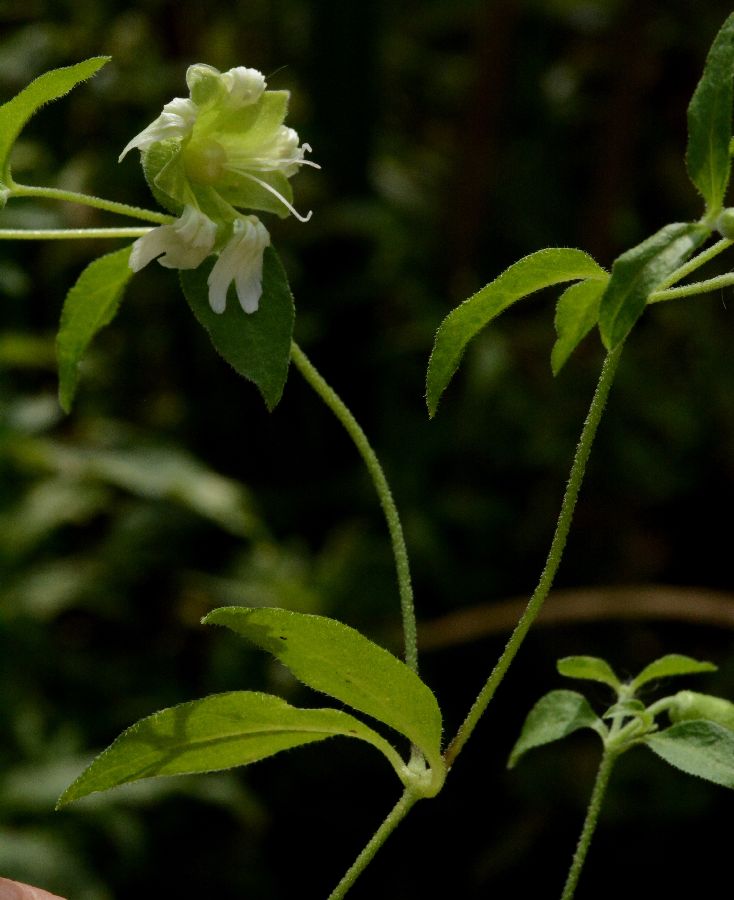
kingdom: Plantae
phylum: Tracheophyta
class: Magnoliopsida
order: Caryophyllales
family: Caryophyllaceae
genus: Silene
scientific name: Silene baccifera
